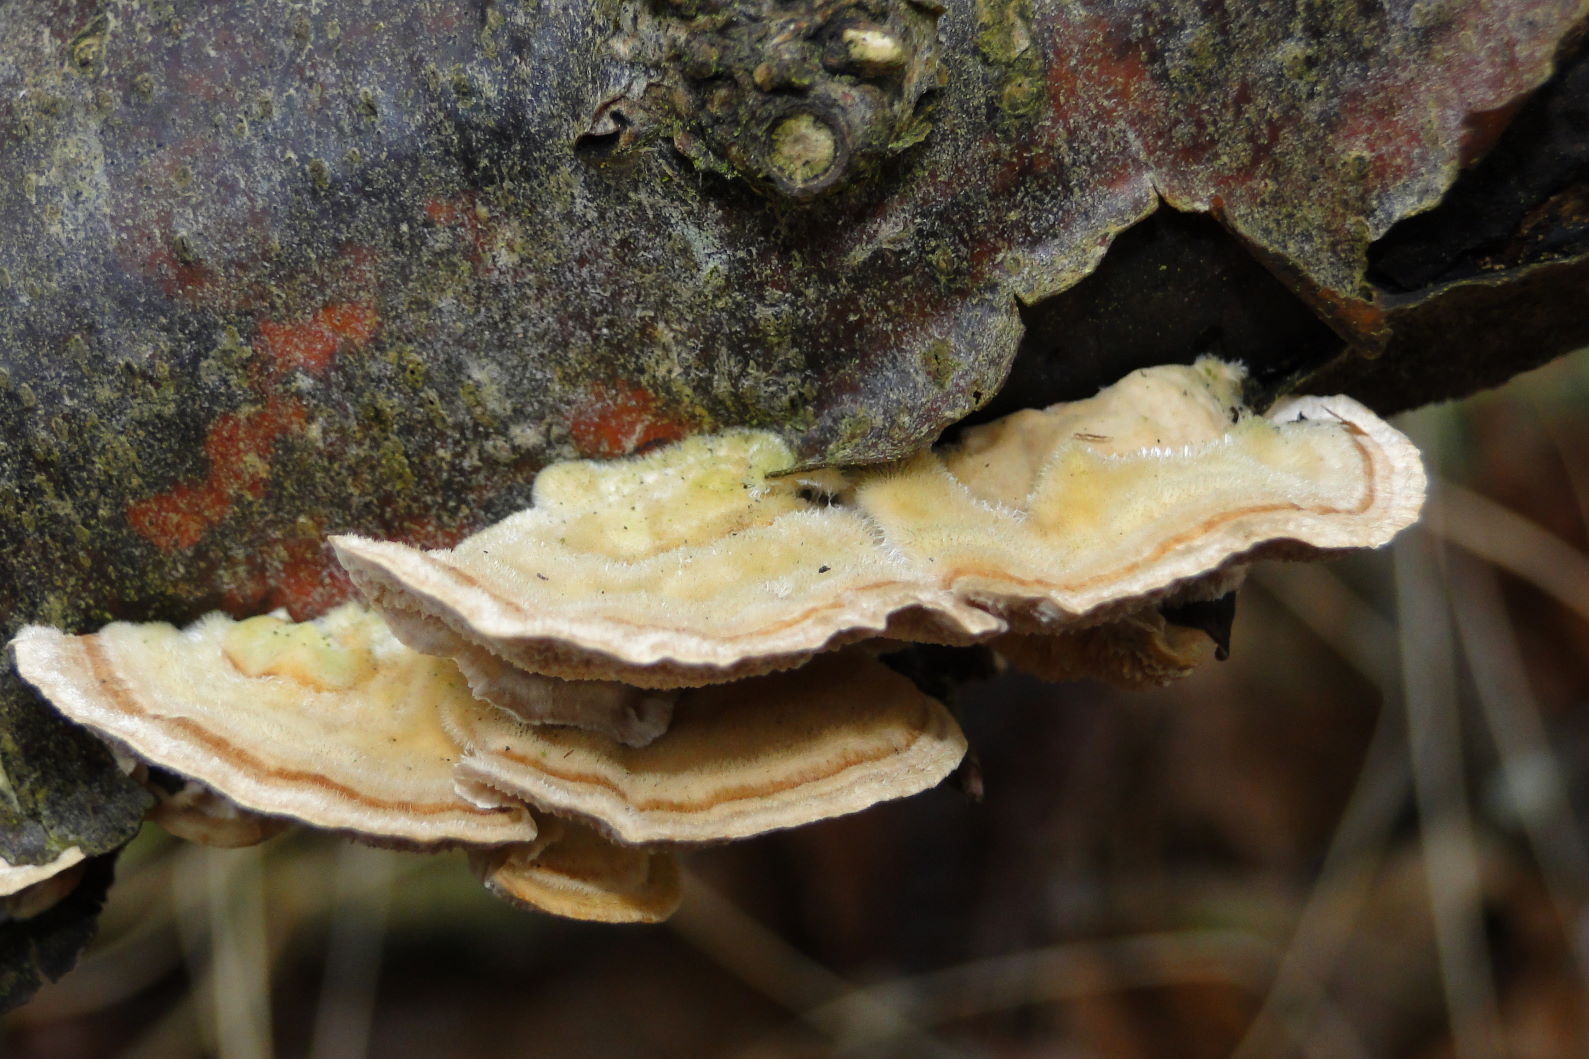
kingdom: Fungi
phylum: Basidiomycota
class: Agaricomycetes
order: Polyporales
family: Polyporaceae
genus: Trametes
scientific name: Trametes ochracea
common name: bæltet læderporesvamp
